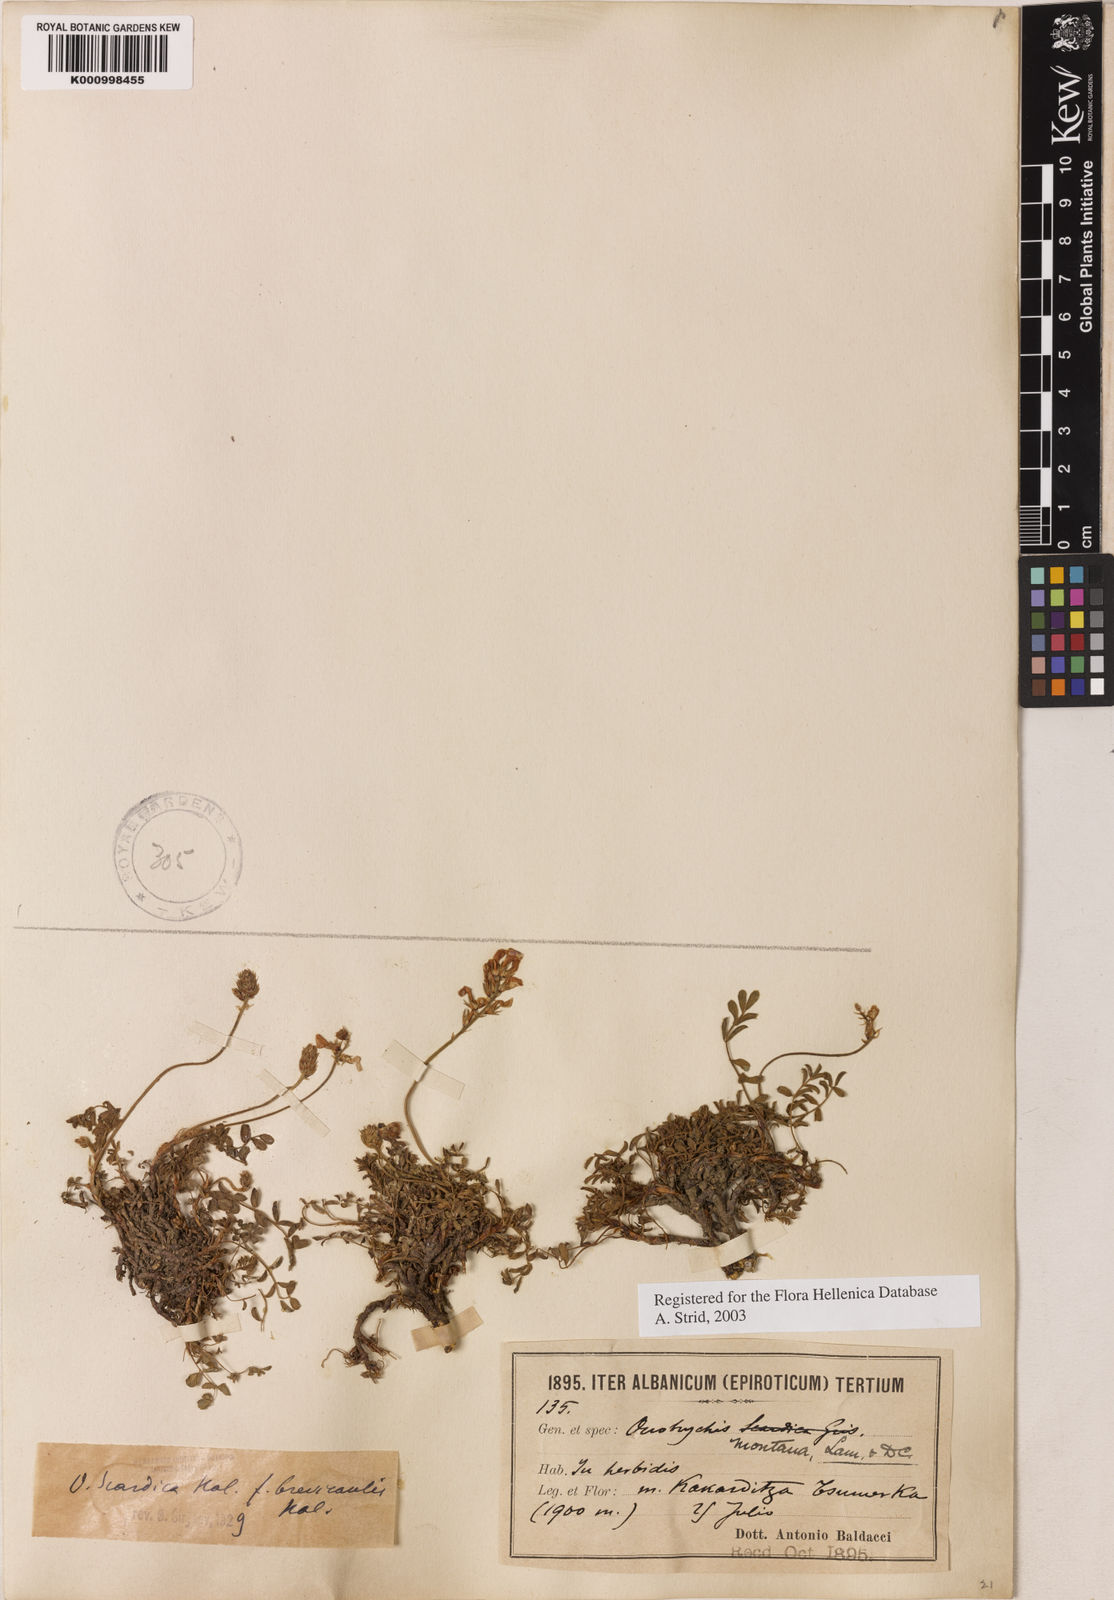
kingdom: Plantae
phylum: Tracheophyta
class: Magnoliopsida
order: Fabales
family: Fabaceae
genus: Onobrychis
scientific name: Onobrychis
